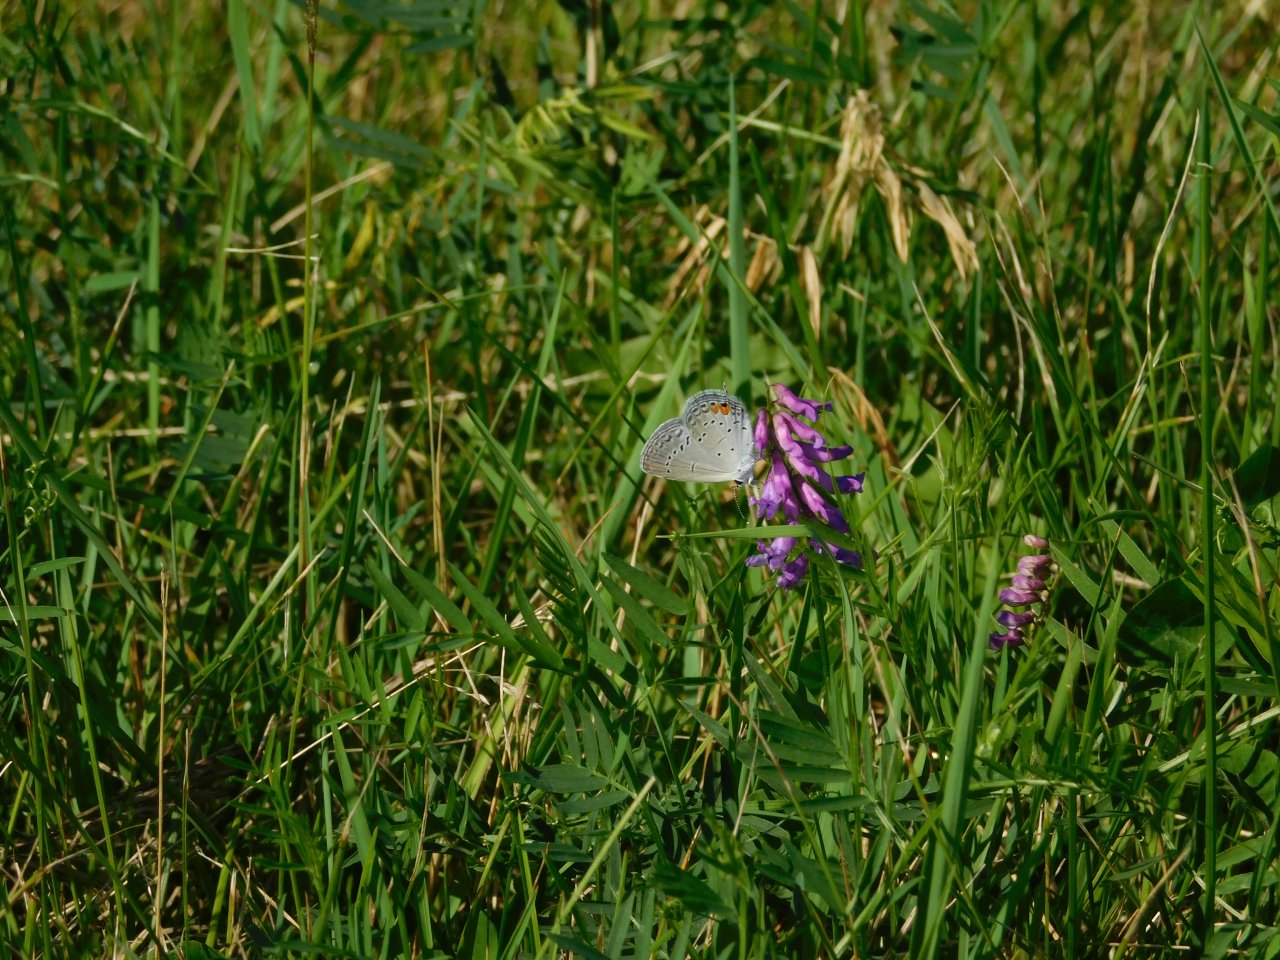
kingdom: Animalia
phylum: Arthropoda
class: Insecta
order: Lepidoptera
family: Lycaenidae
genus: Elkalyce
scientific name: Elkalyce comyntas
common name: Eastern Tailed-Blue
